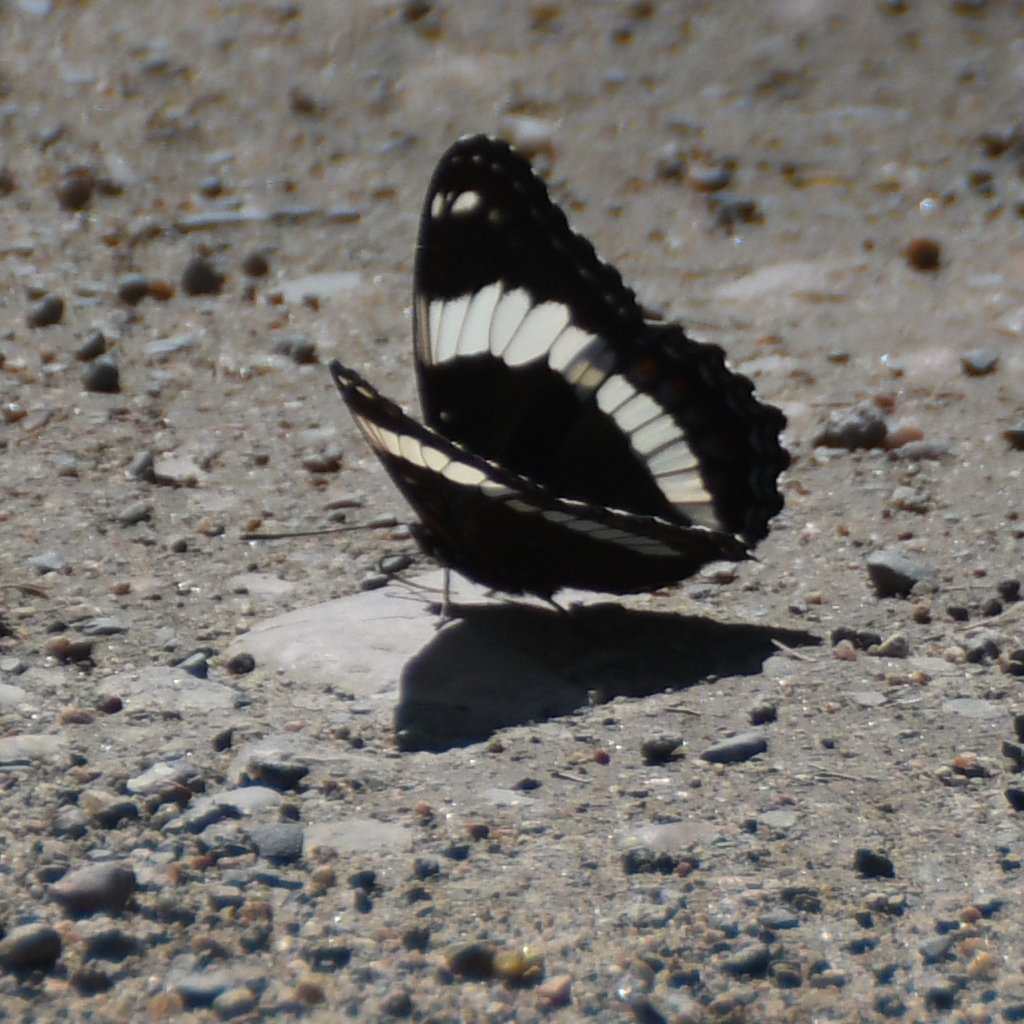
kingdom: Animalia
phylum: Arthropoda
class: Insecta
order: Lepidoptera
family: Nymphalidae
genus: Limenitis
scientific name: Limenitis arthemis
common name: Red-spotted Admiral
